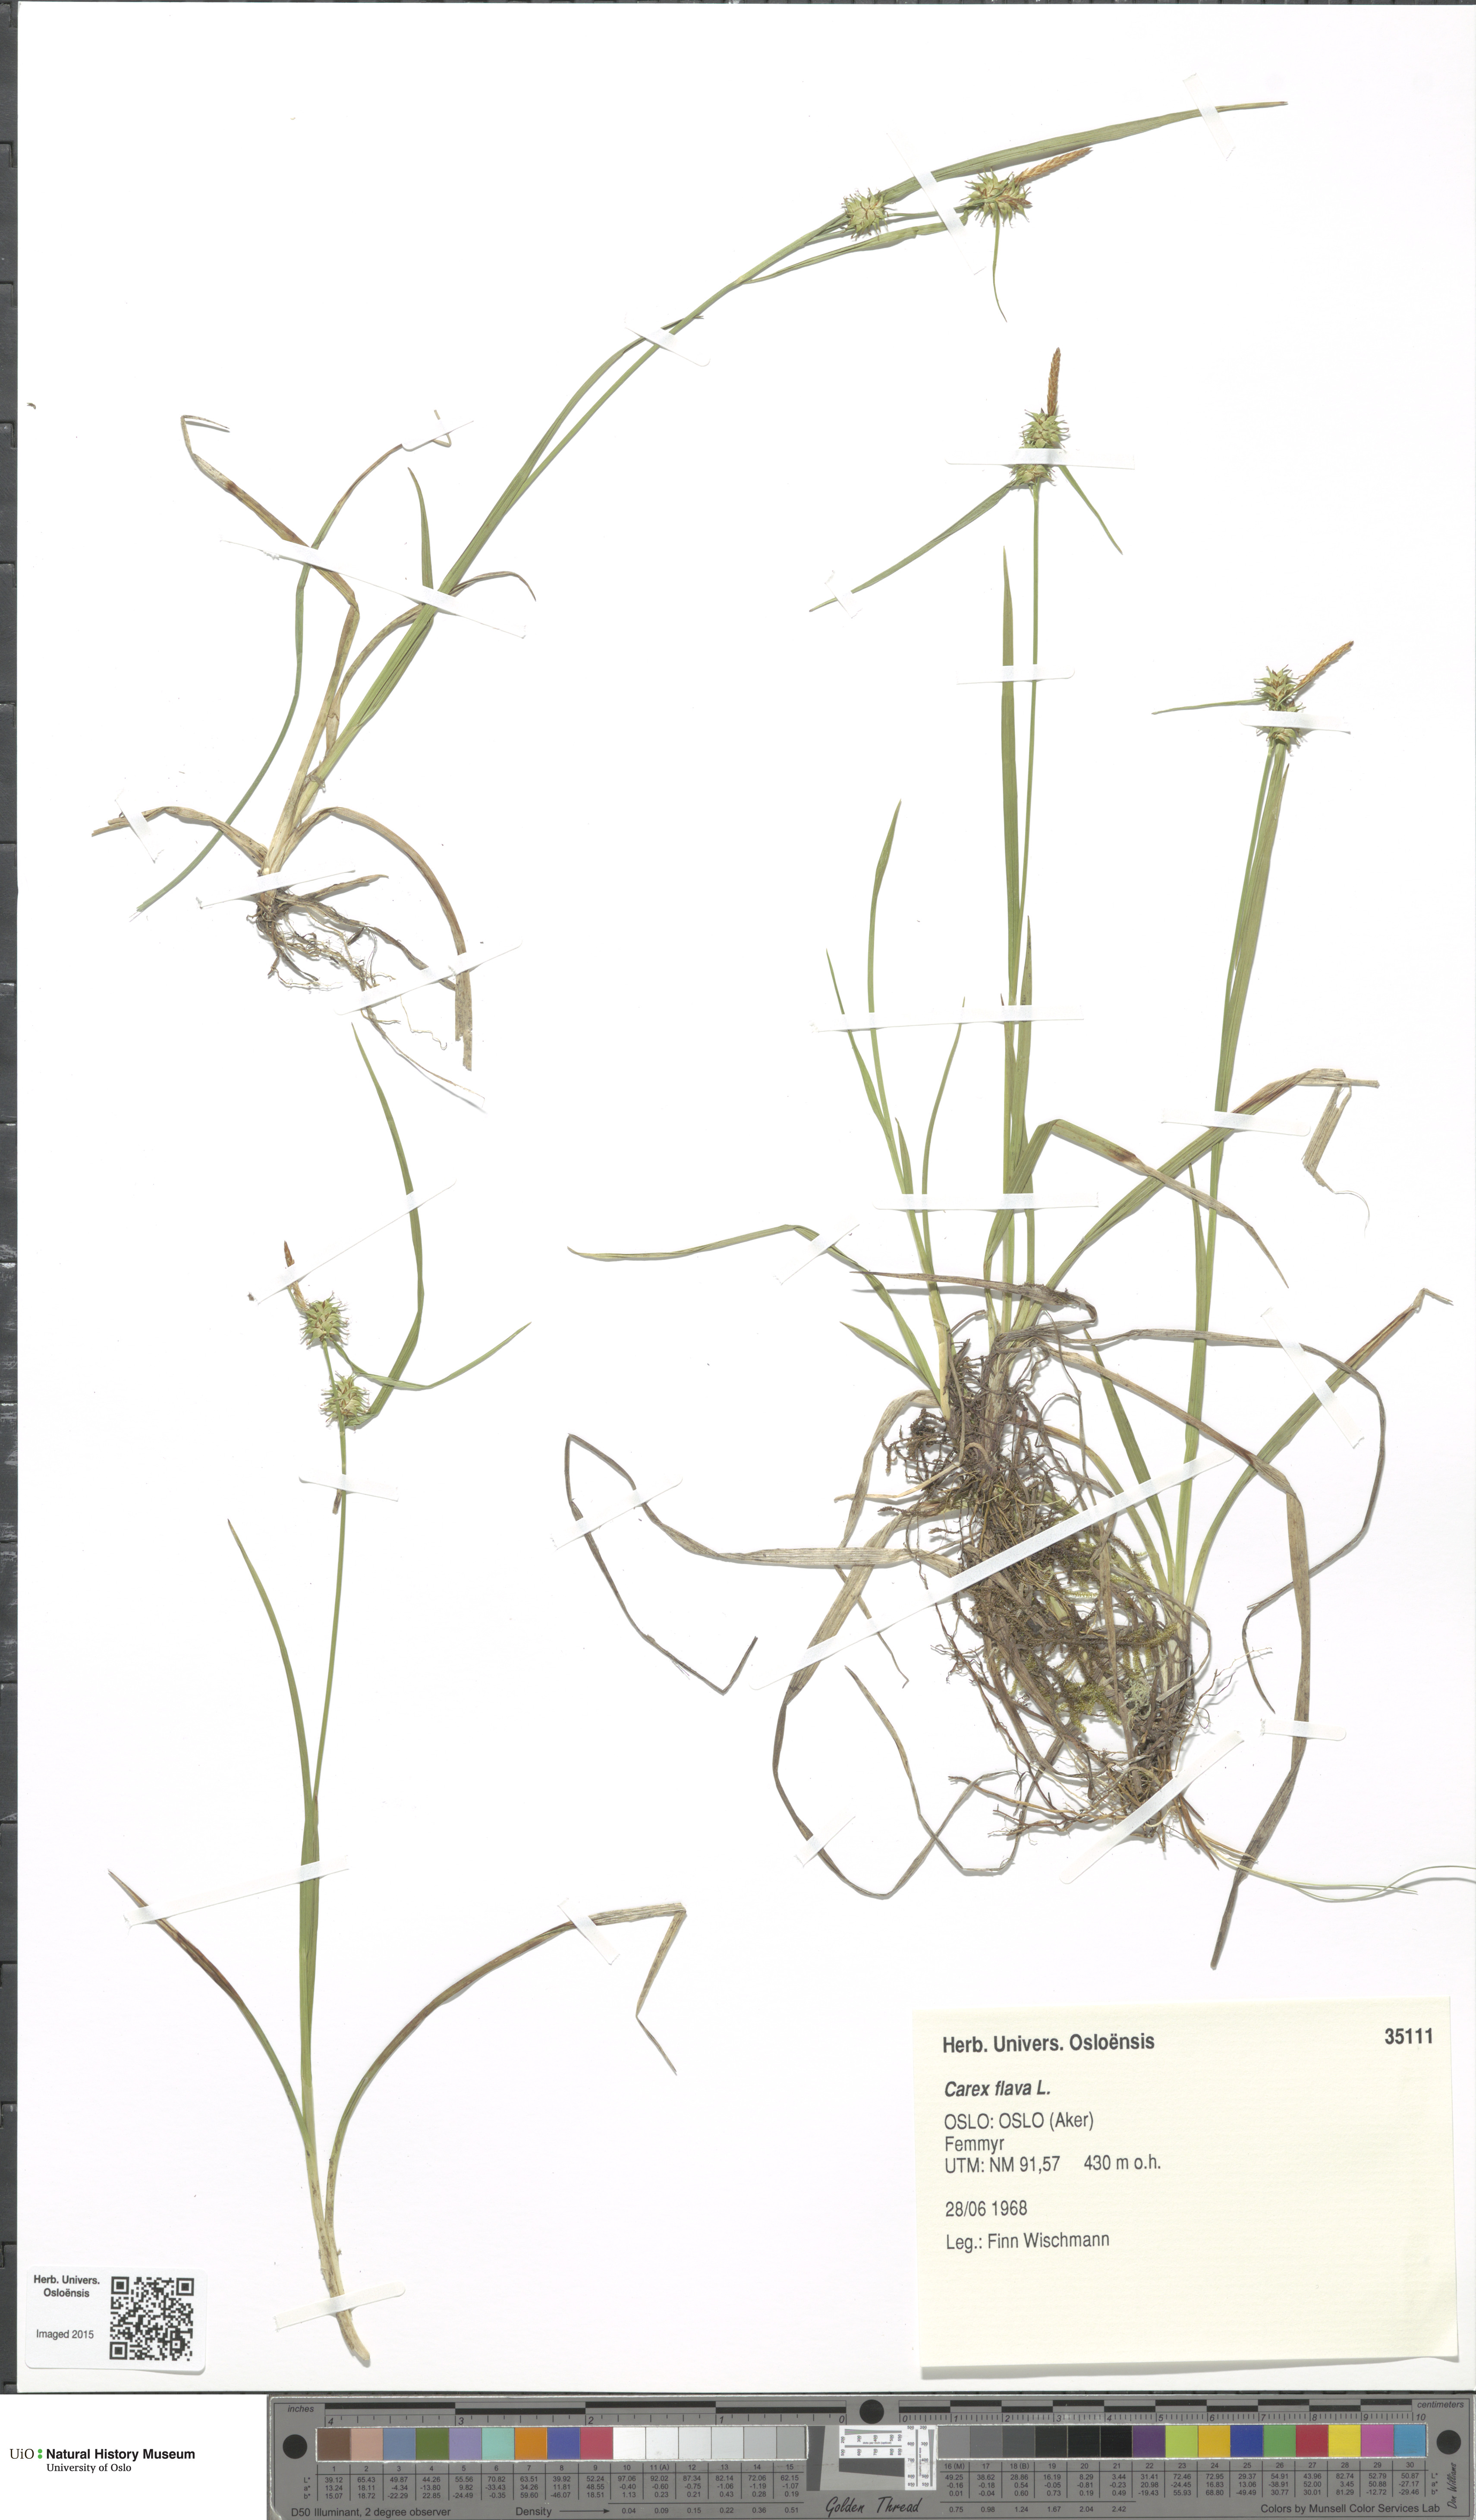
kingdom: Plantae
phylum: Tracheophyta
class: Liliopsida
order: Poales
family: Cyperaceae
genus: Carex
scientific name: Carex flava
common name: Large yellow-sedge
